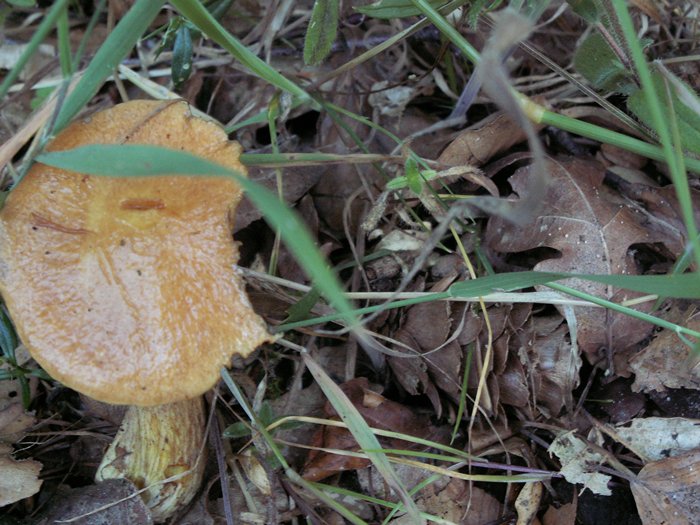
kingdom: Fungi
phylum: Basidiomycota
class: Agaricomycetes
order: Boletales
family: Suillaceae
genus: Suillus
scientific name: Suillus grevillei
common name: lærke-slimrørhat
